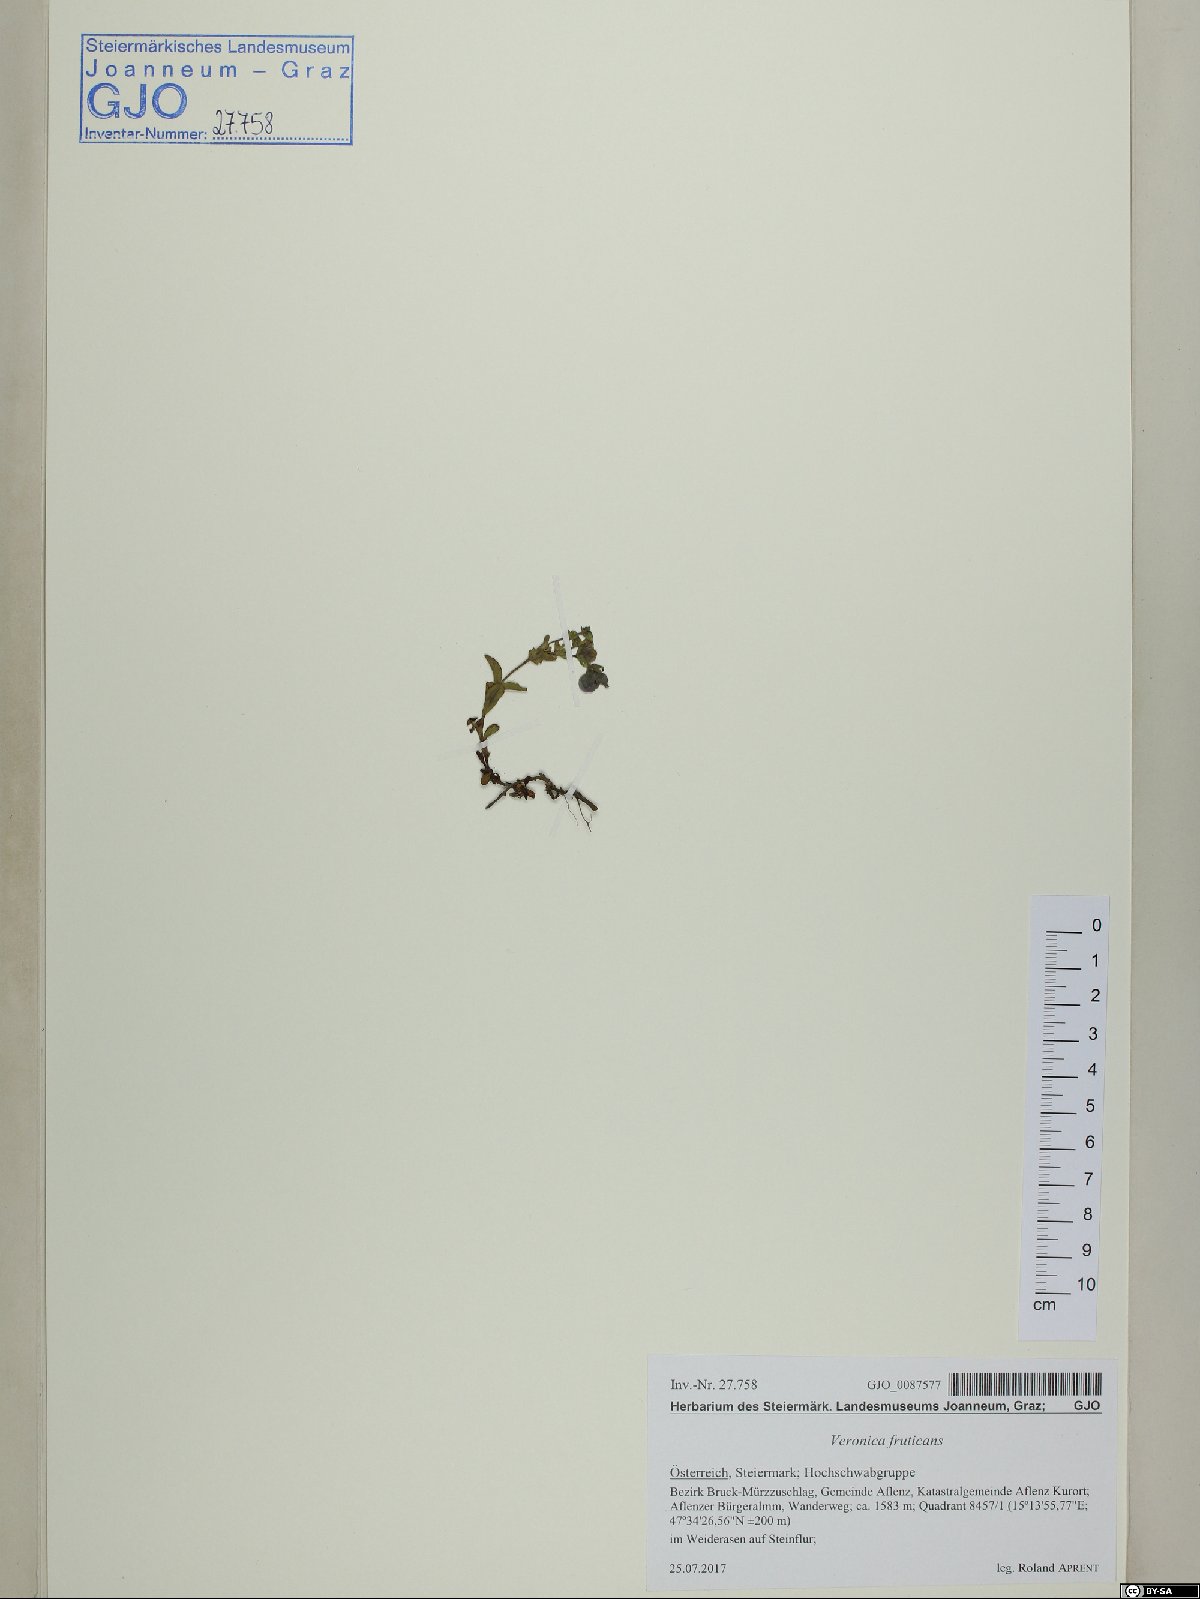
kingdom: Plantae
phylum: Tracheophyta
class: Magnoliopsida
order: Lamiales
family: Plantaginaceae
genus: Veronica
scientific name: Veronica fruticans
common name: Rock speedwell
